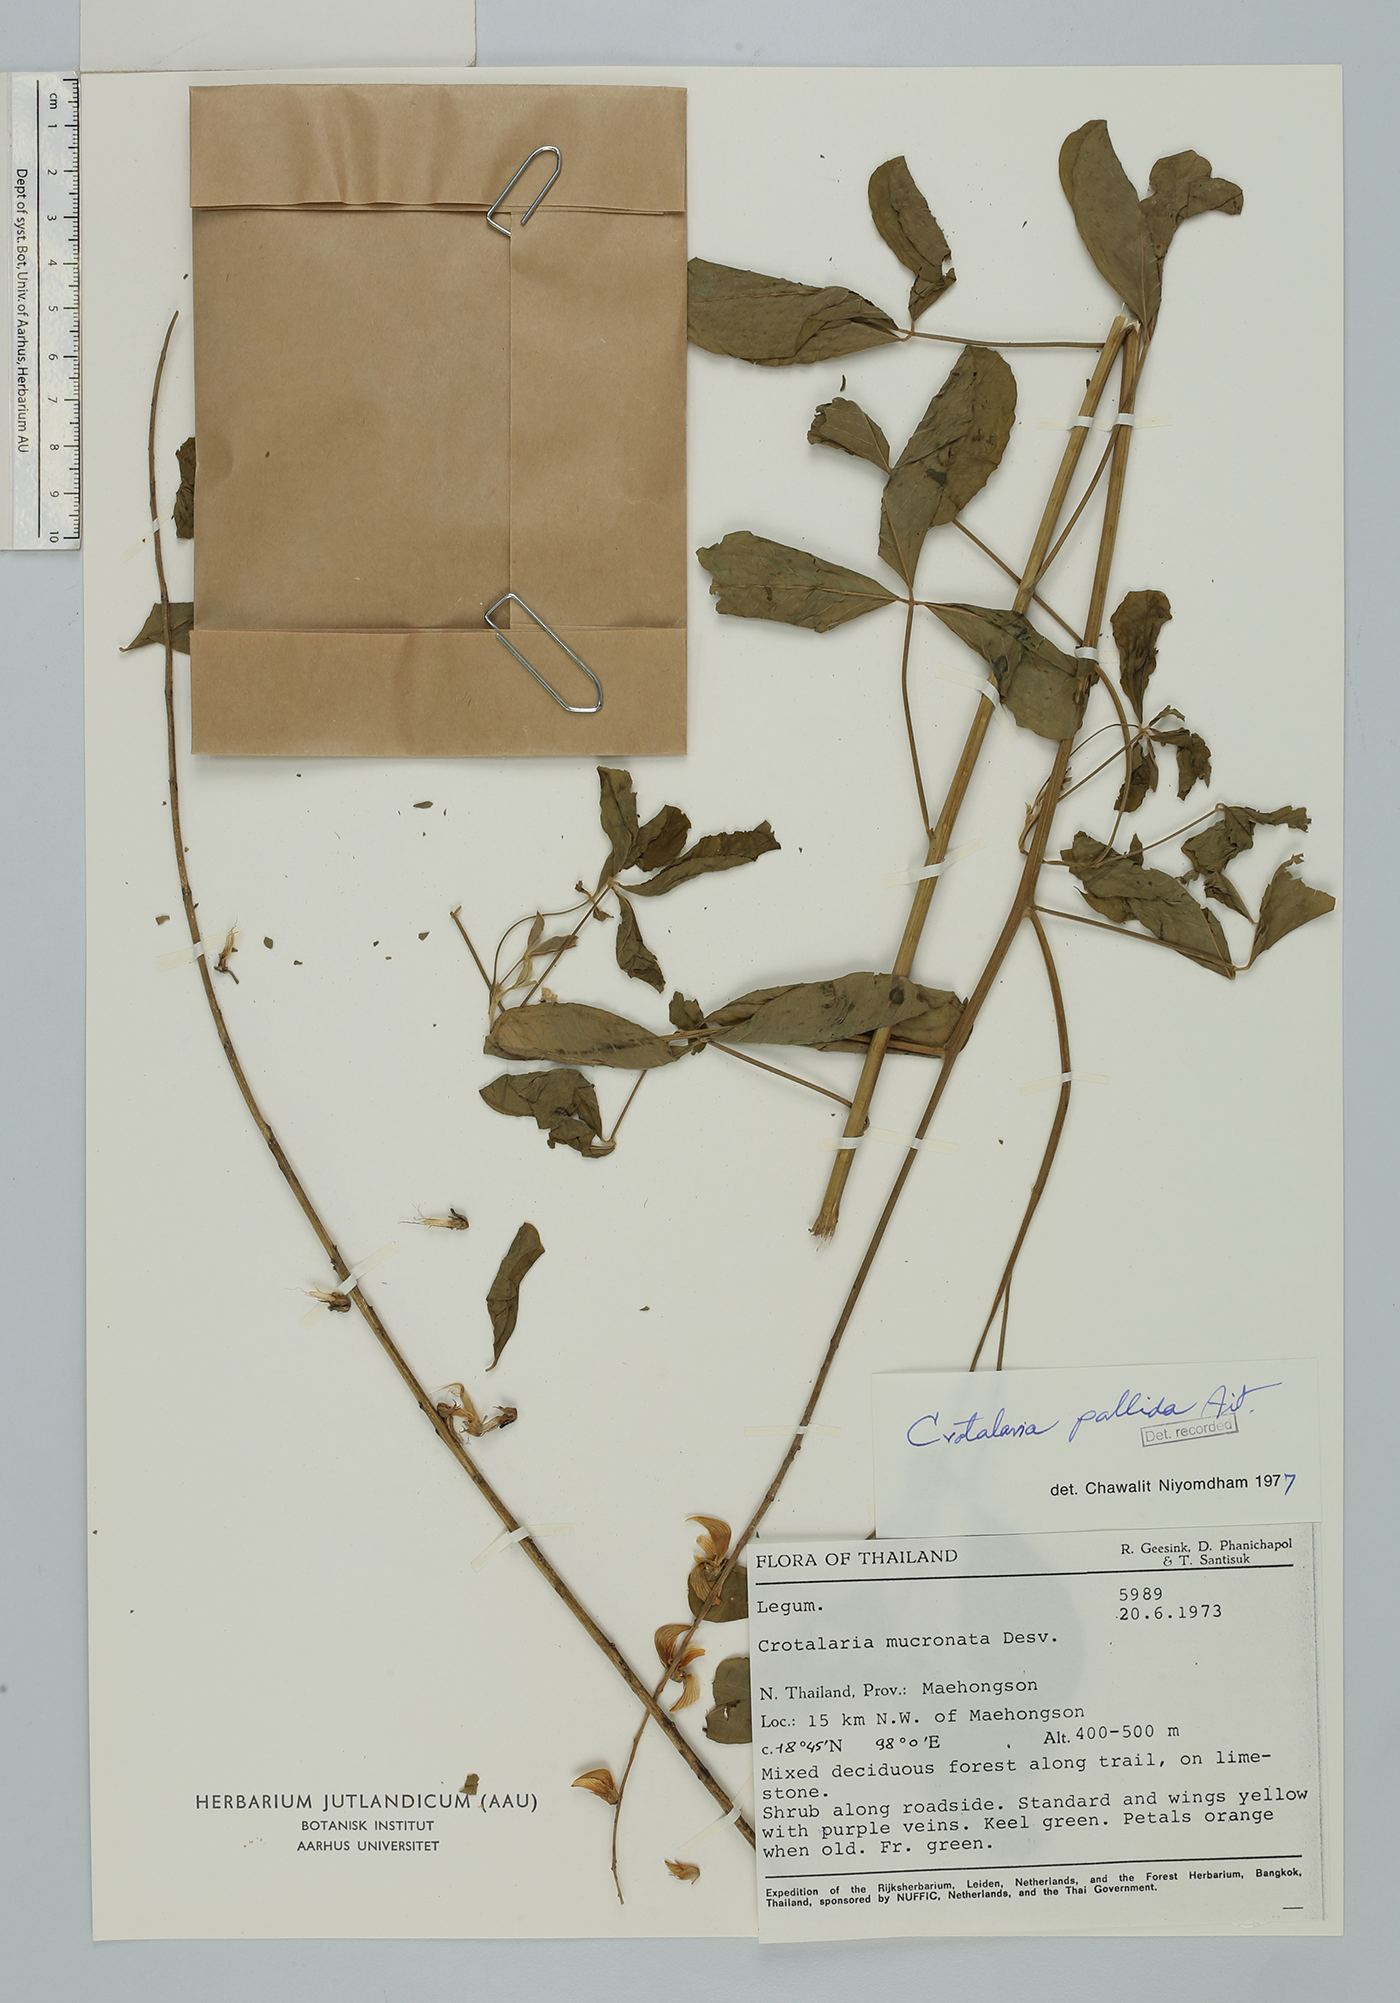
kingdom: Plantae
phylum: Tracheophyta
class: Magnoliopsida
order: Fabales
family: Fabaceae
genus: Crotalaria
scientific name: Crotalaria pallida
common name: Smooth rattlebox
